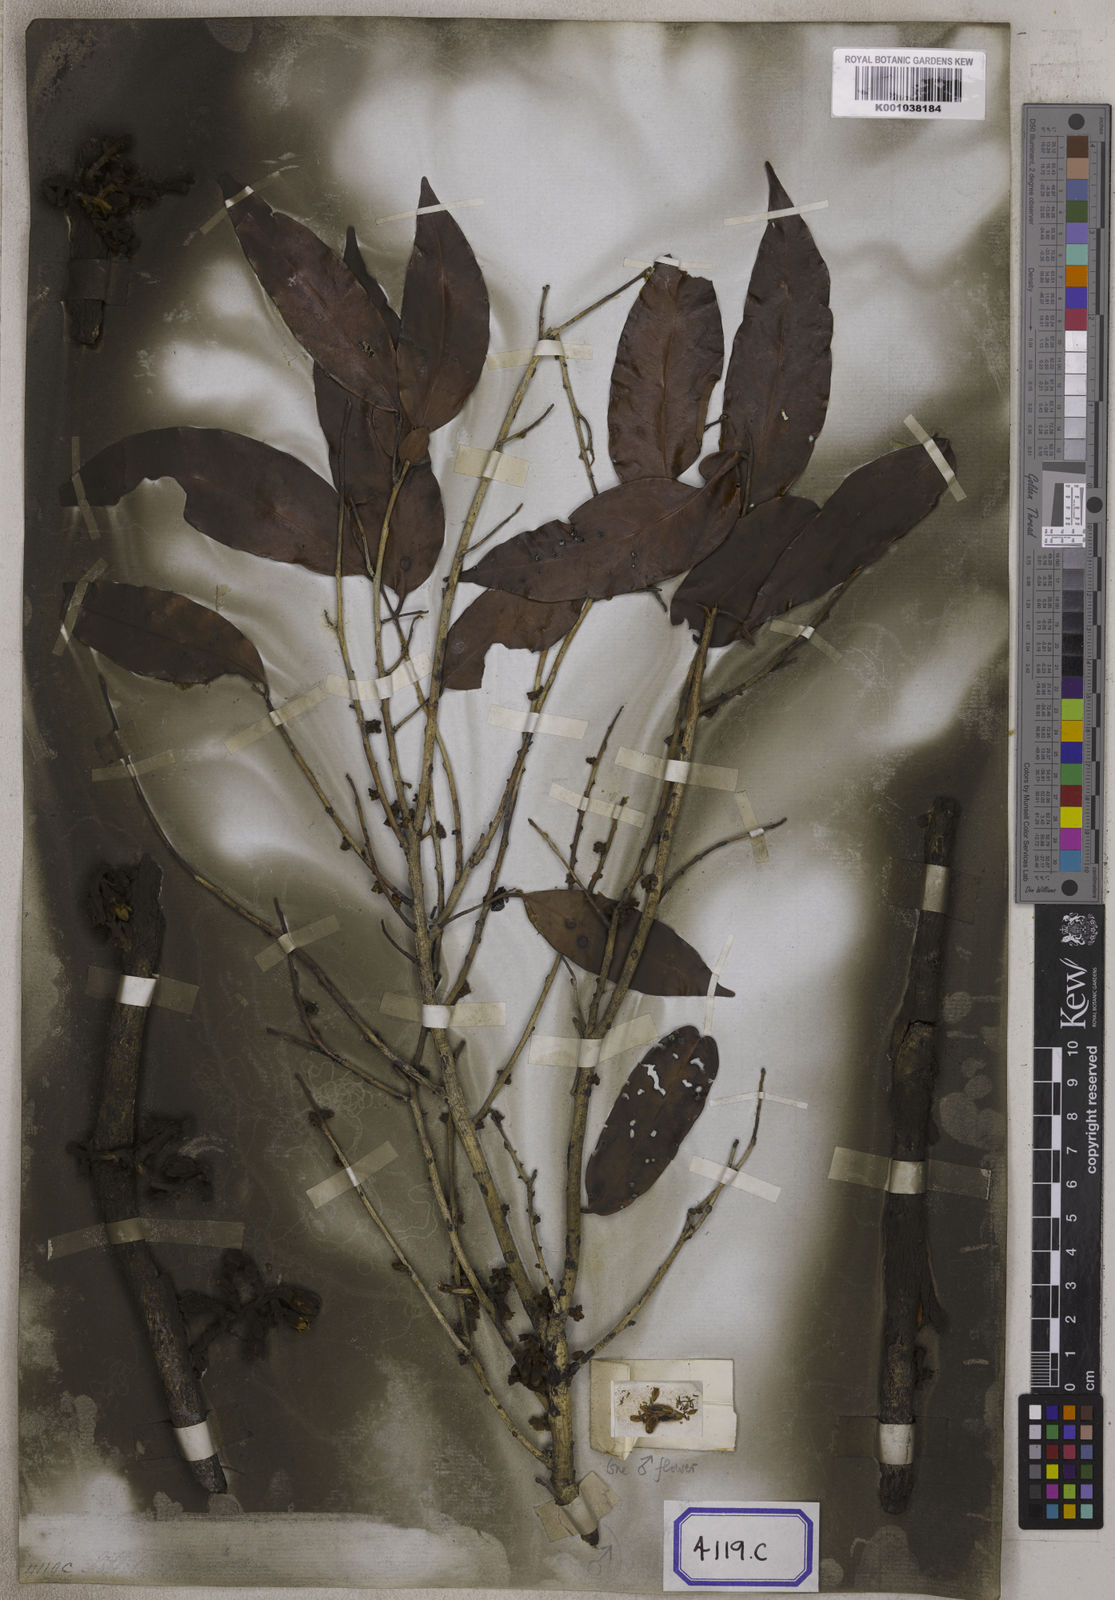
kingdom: Plantae
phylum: Tracheophyta
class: Magnoliopsida
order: Ericales
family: Ebenaceae
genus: Diospyros
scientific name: Diospyros ramiflora
